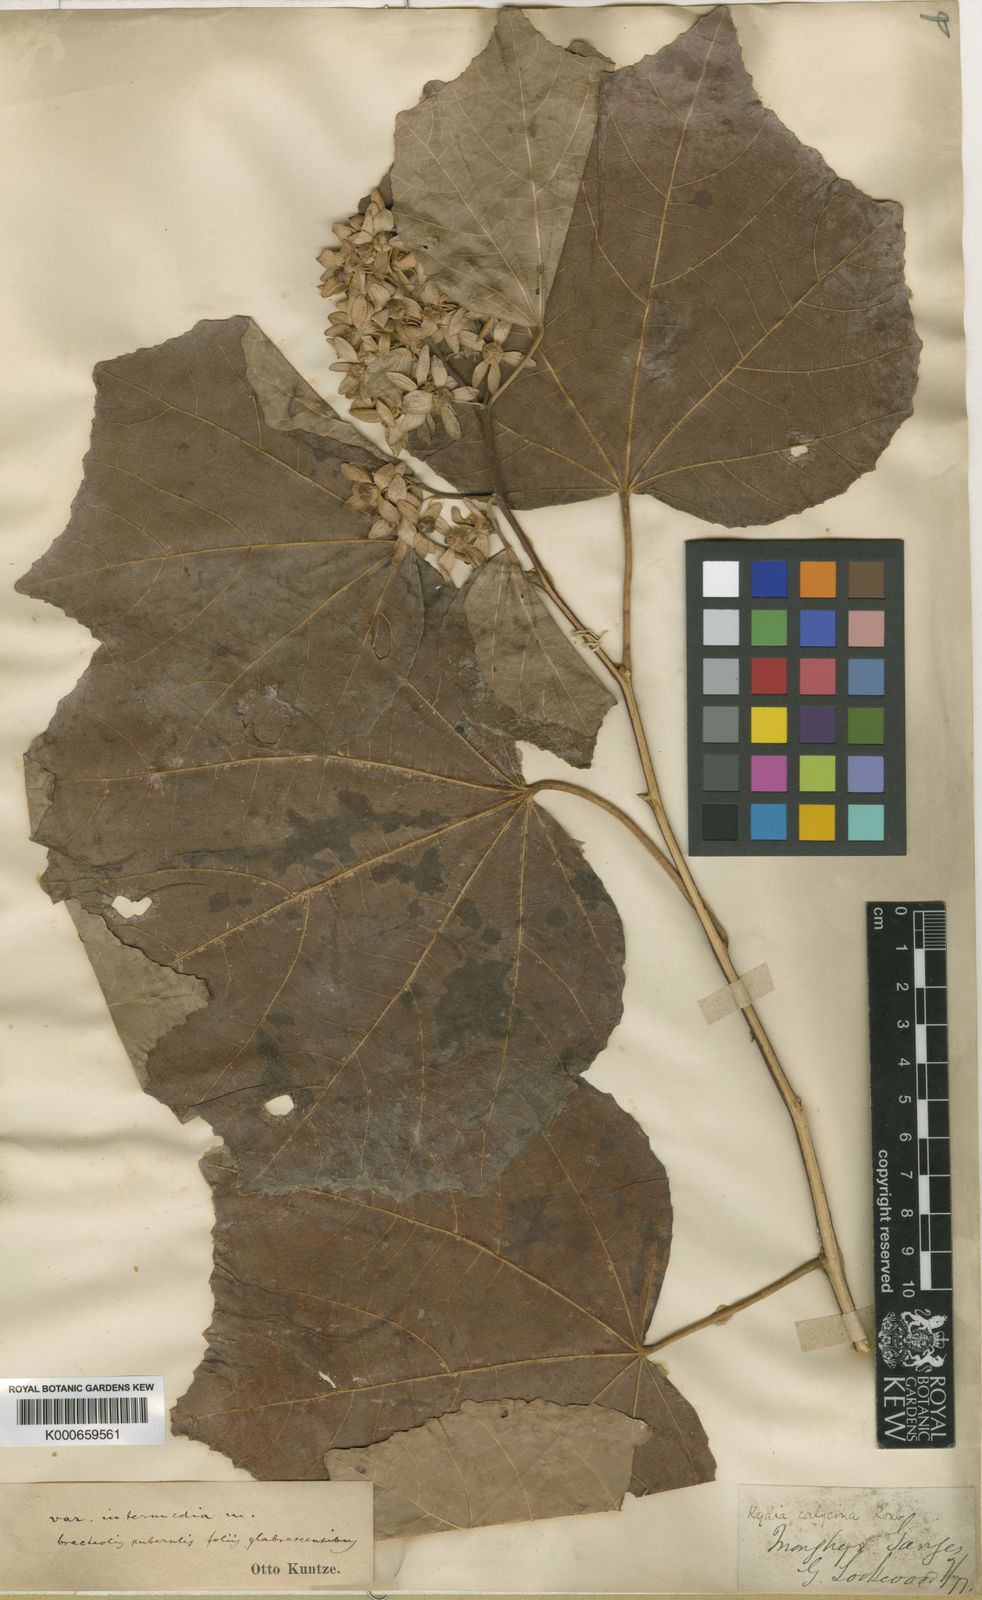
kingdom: Plantae
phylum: Tracheophyta
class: Magnoliopsida
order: Malvales
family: Malvaceae
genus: Kydia
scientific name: Kydia calycina
